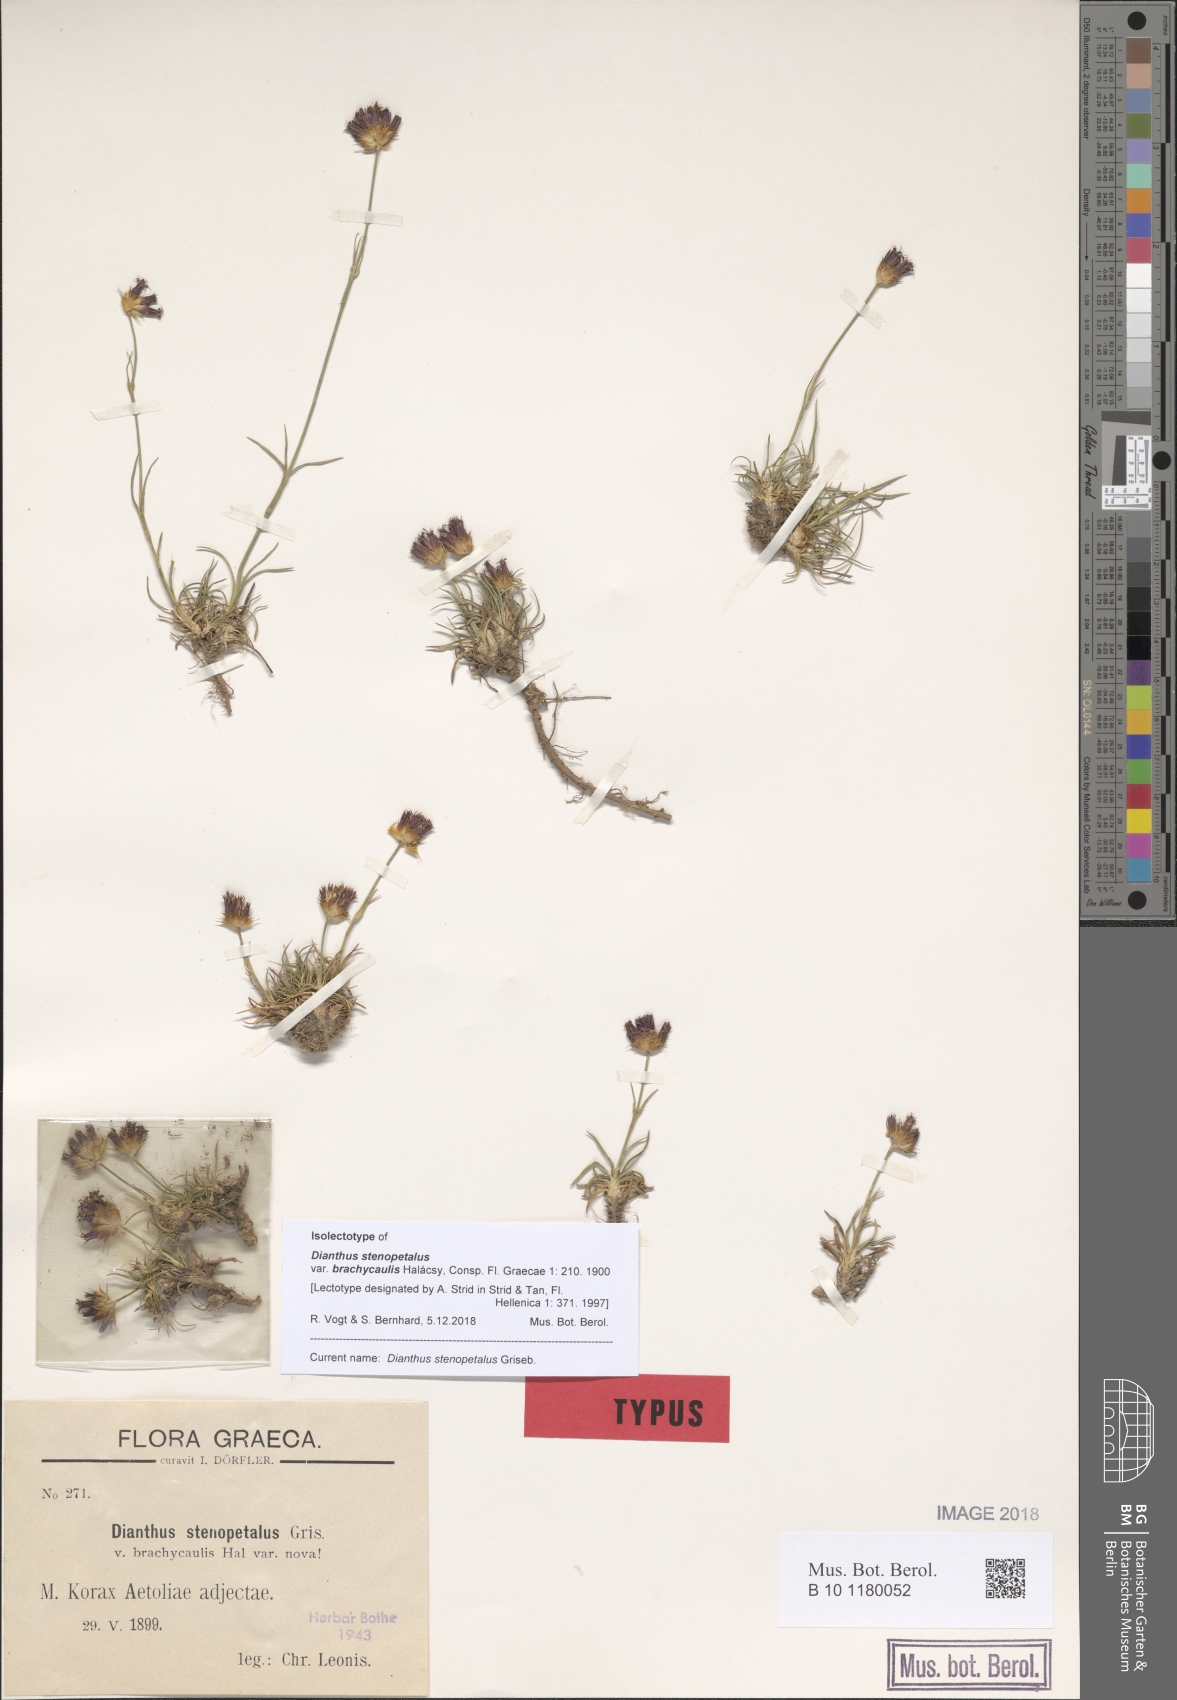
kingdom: Plantae
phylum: Tracheophyta
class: Magnoliopsida
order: Caryophyllales
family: Caryophyllaceae
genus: Dianthus
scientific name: Dianthus stenopetalus
